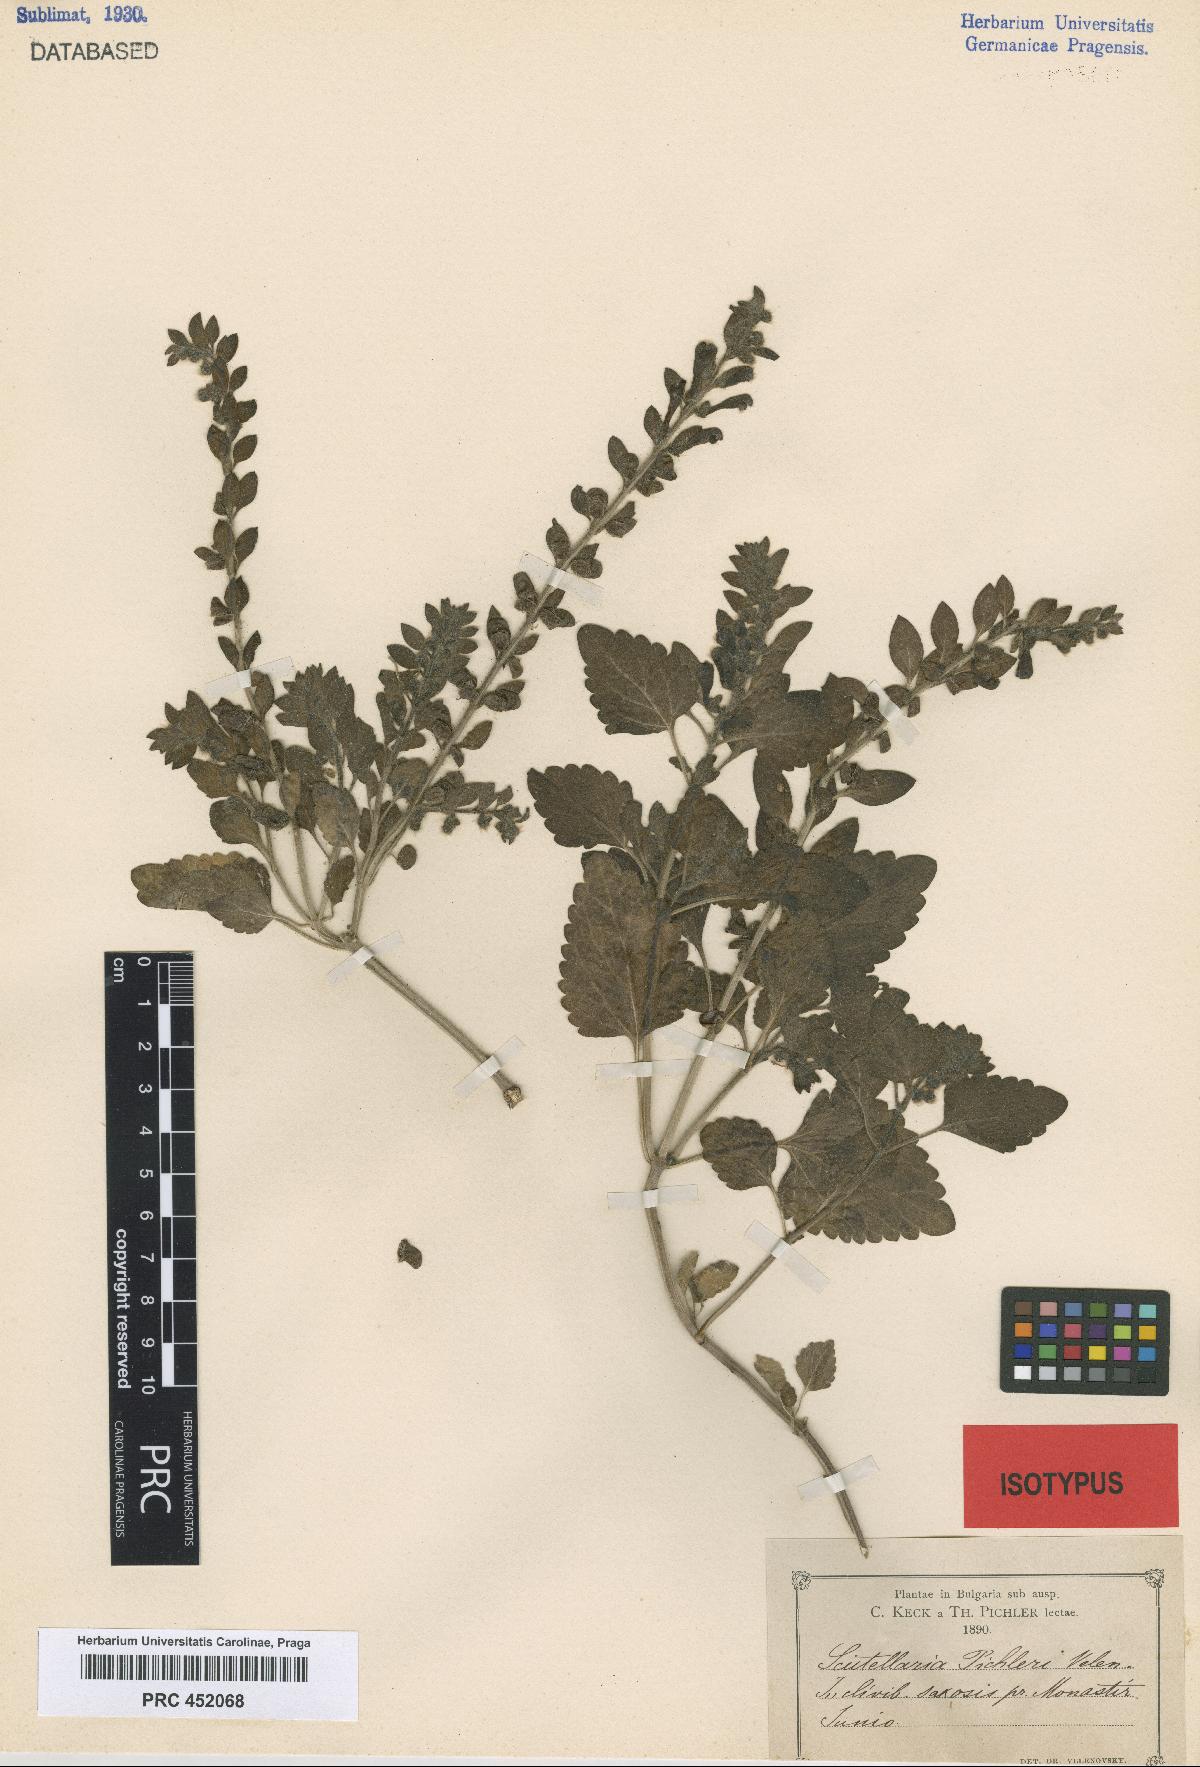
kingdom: Plantae
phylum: Tracheophyta
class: Magnoliopsida
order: Lamiales
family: Lamiaceae
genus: Scutellaria
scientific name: Scutellaria albida
